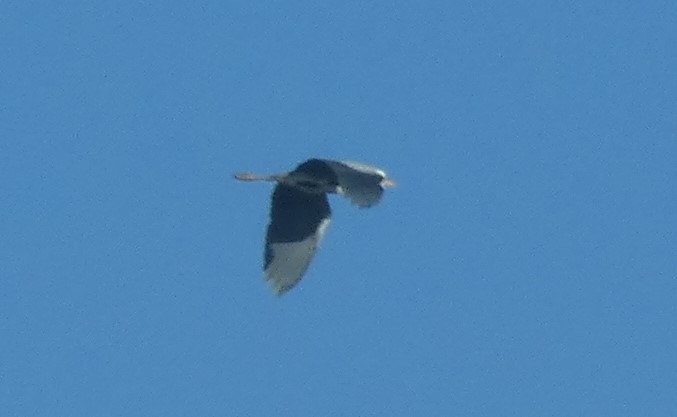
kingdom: Animalia
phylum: Chordata
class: Aves
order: Pelecaniformes
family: Ardeidae
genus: Ardea
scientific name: Ardea cinerea
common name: Fiskehejre
